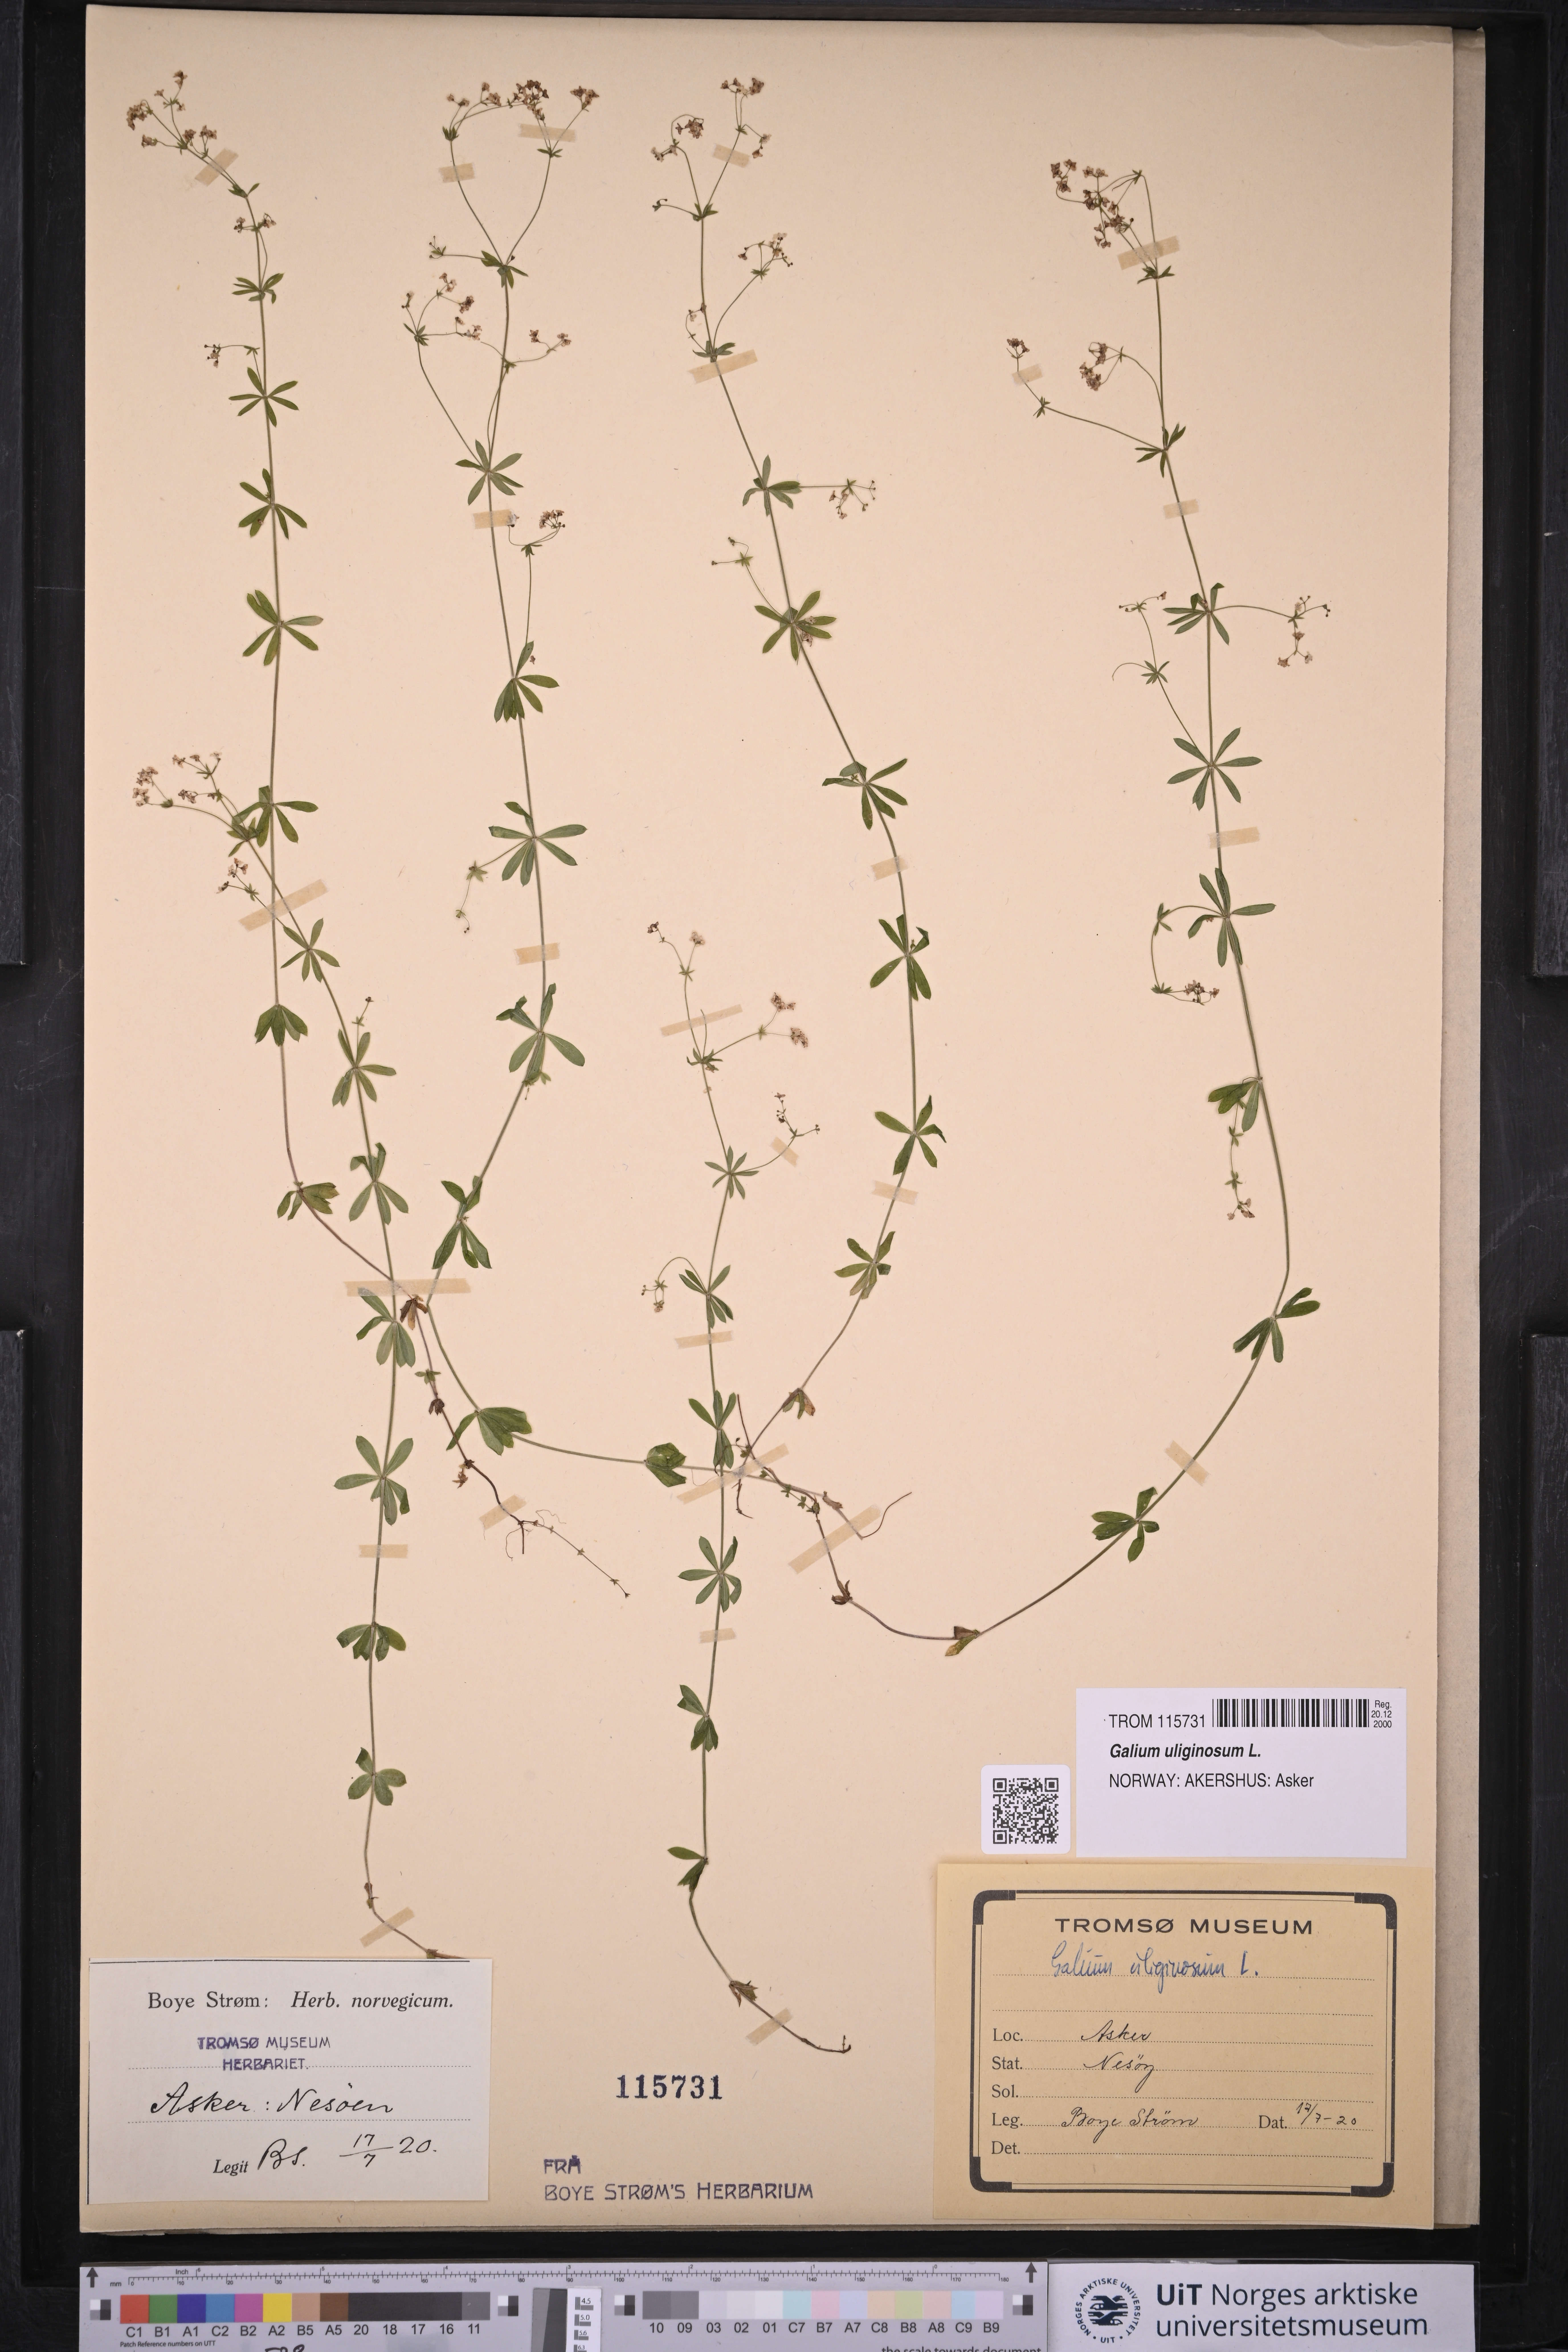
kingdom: Plantae
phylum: Tracheophyta
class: Magnoliopsida
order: Gentianales
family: Rubiaceae
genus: Galium
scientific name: Galium uliginosum
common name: Fen bedstraw
